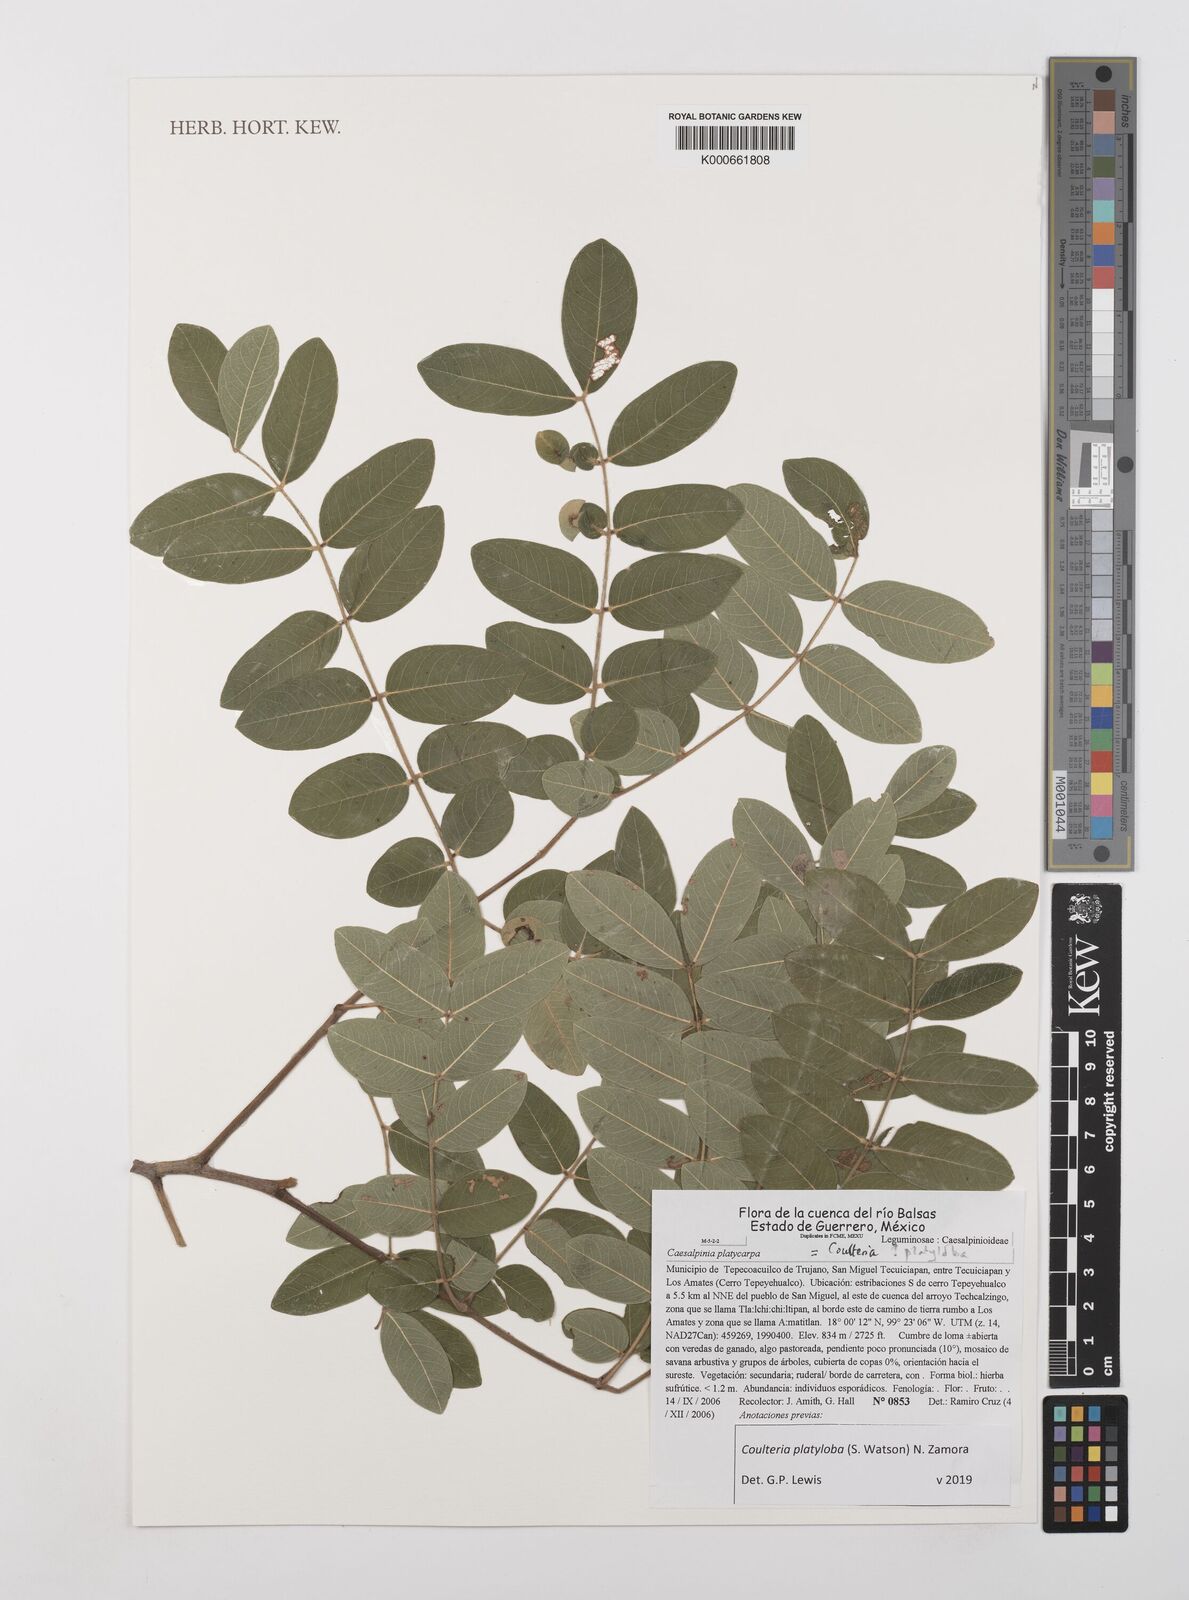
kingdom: Plantae
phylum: Tracheophyta
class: Magnoliopsida
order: Fabales
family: Fabaceae
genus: Coulteria
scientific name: Coulteria platyloba
